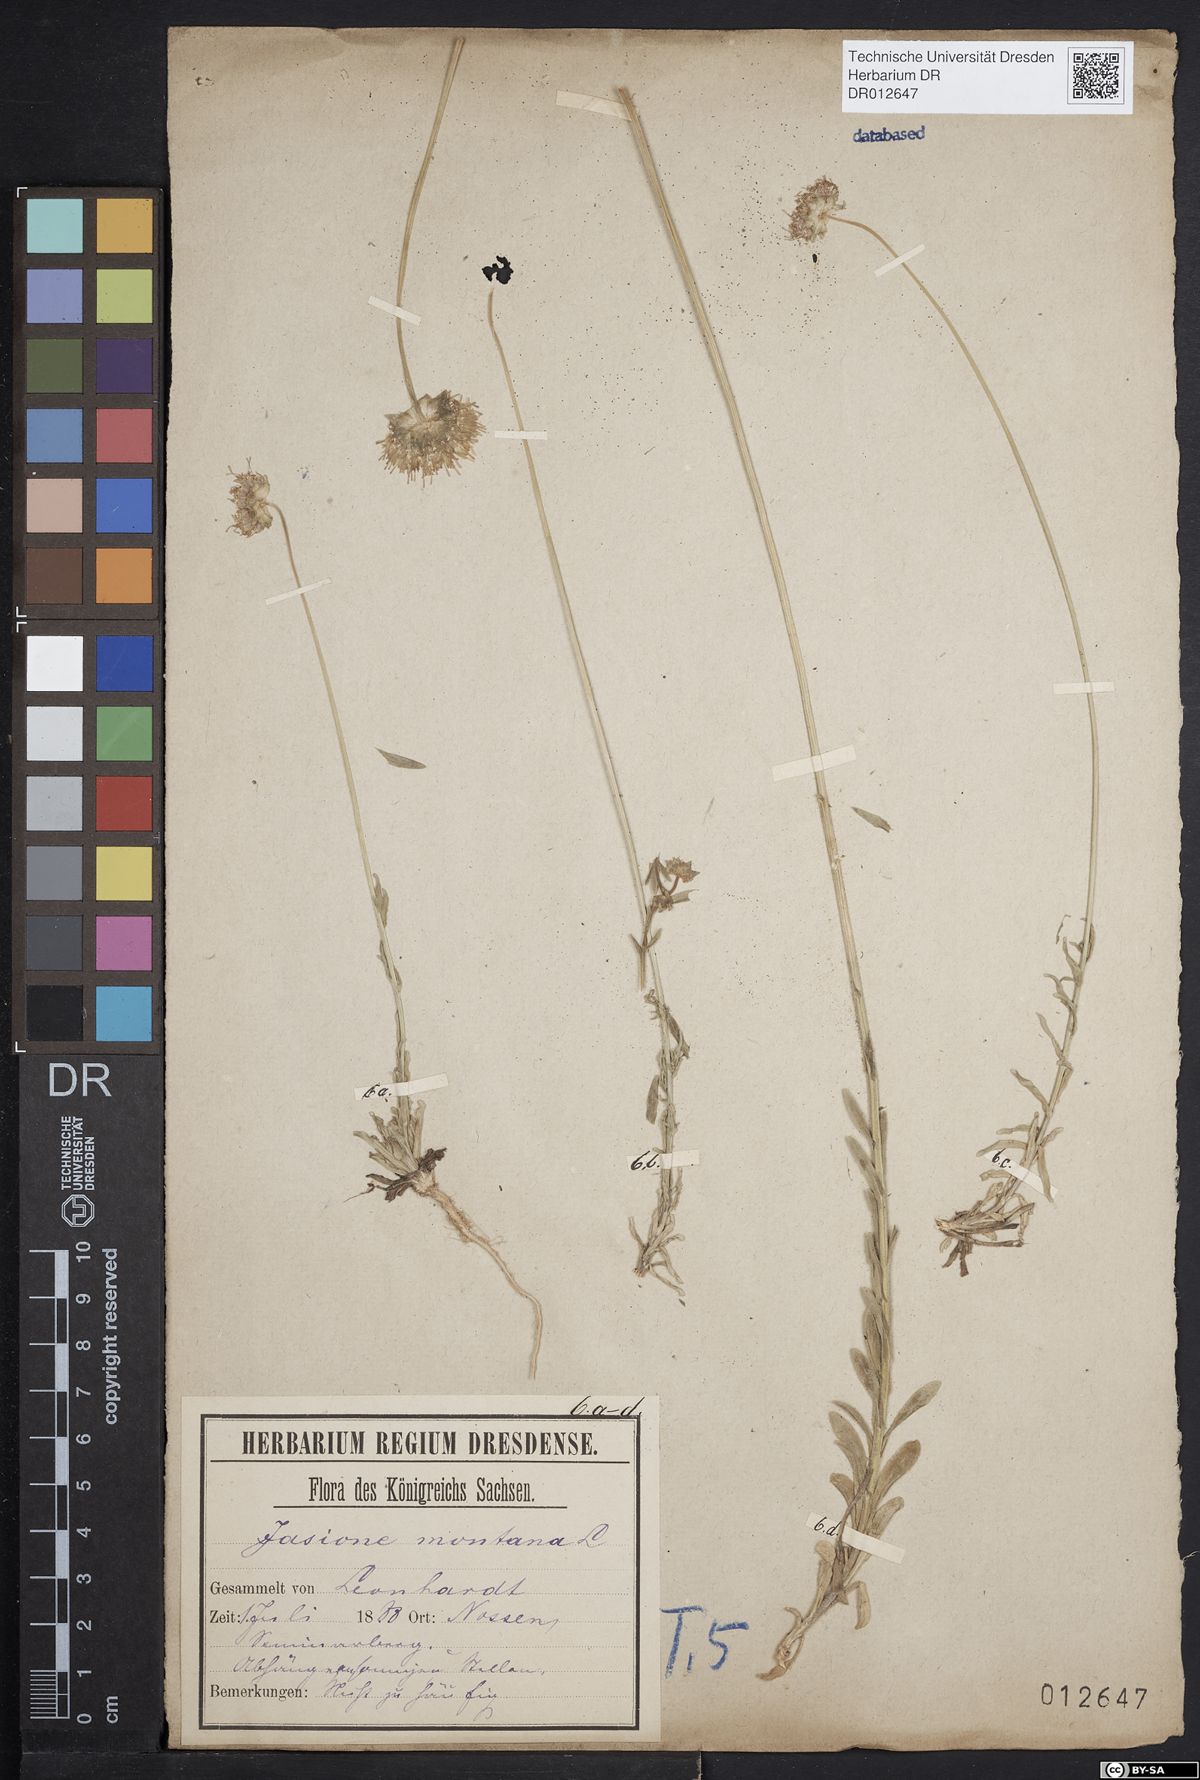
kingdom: Plantae
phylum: Tracheophyta
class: Magnoliopsida
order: Asterales
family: Campanulaceae
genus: Jasione
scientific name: Jasione montana
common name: Sheep's-bit
